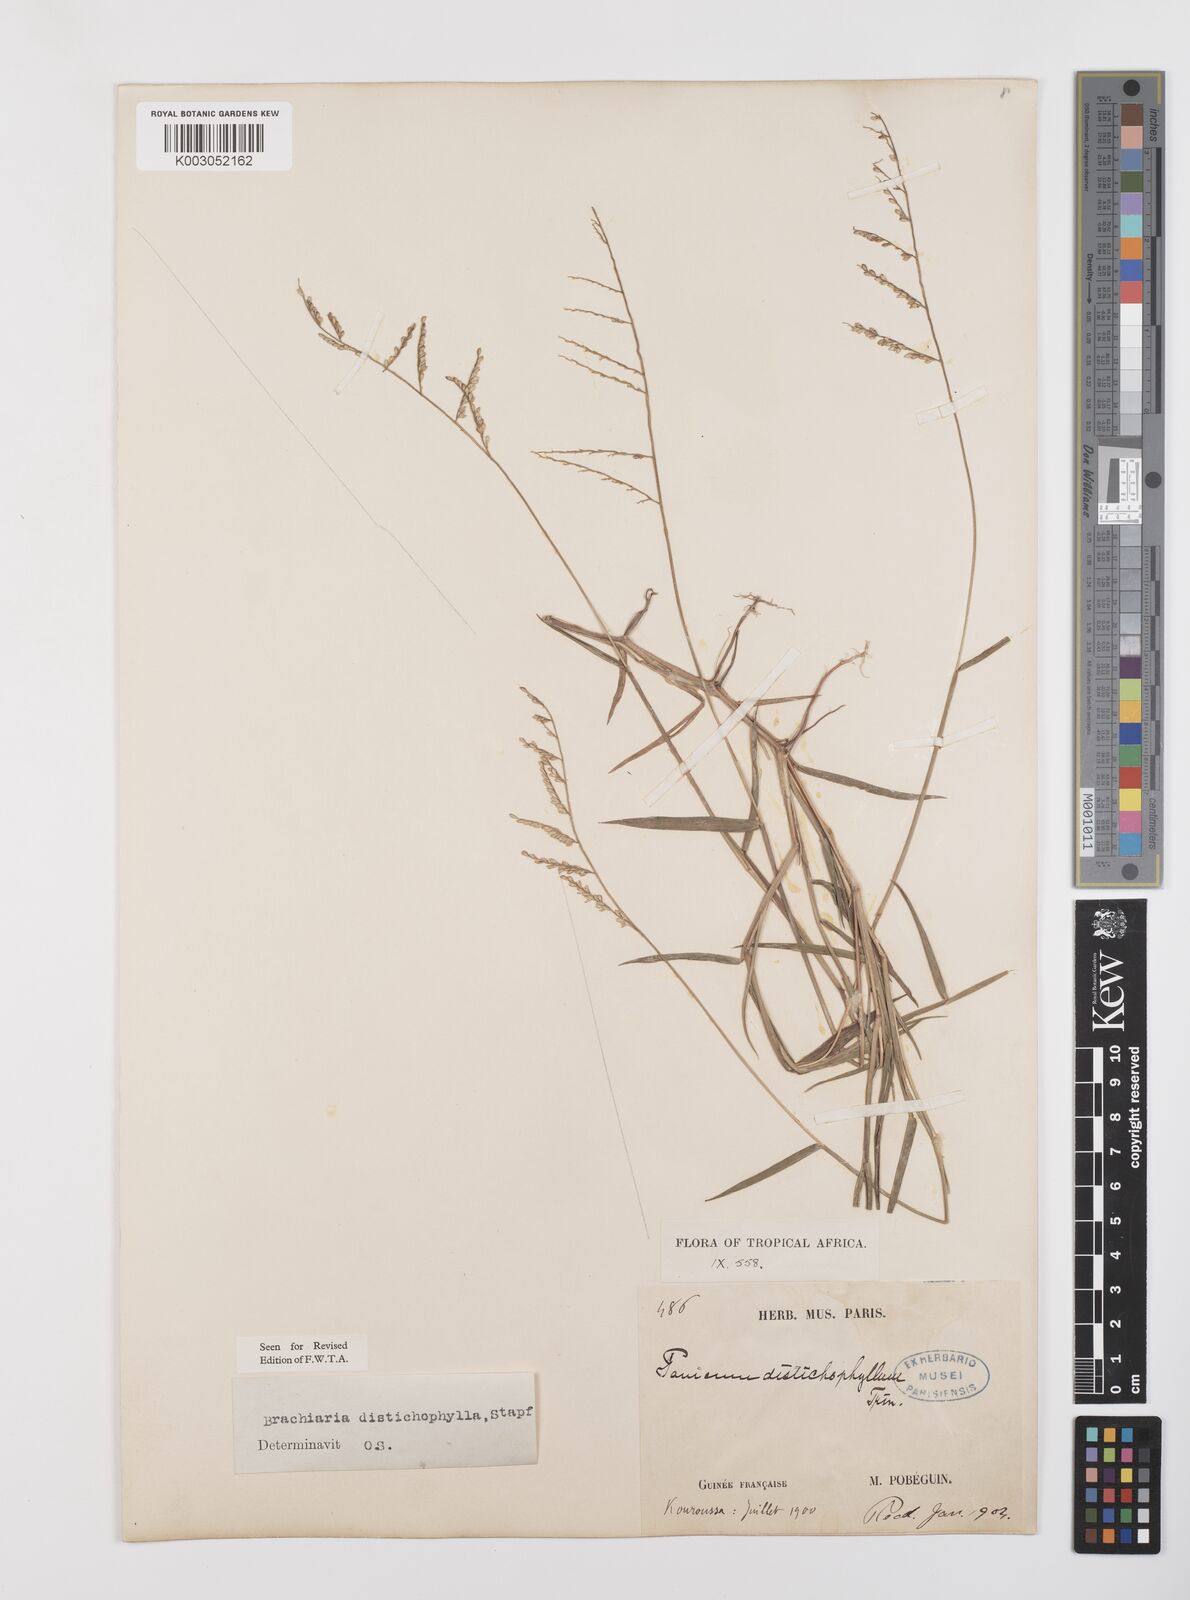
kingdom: Plantae
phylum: Tracheophyta
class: Liliopsida
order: Poales
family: Poaceae
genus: Urochloa
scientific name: Urochloa villosa
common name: Hairy signalgrass
